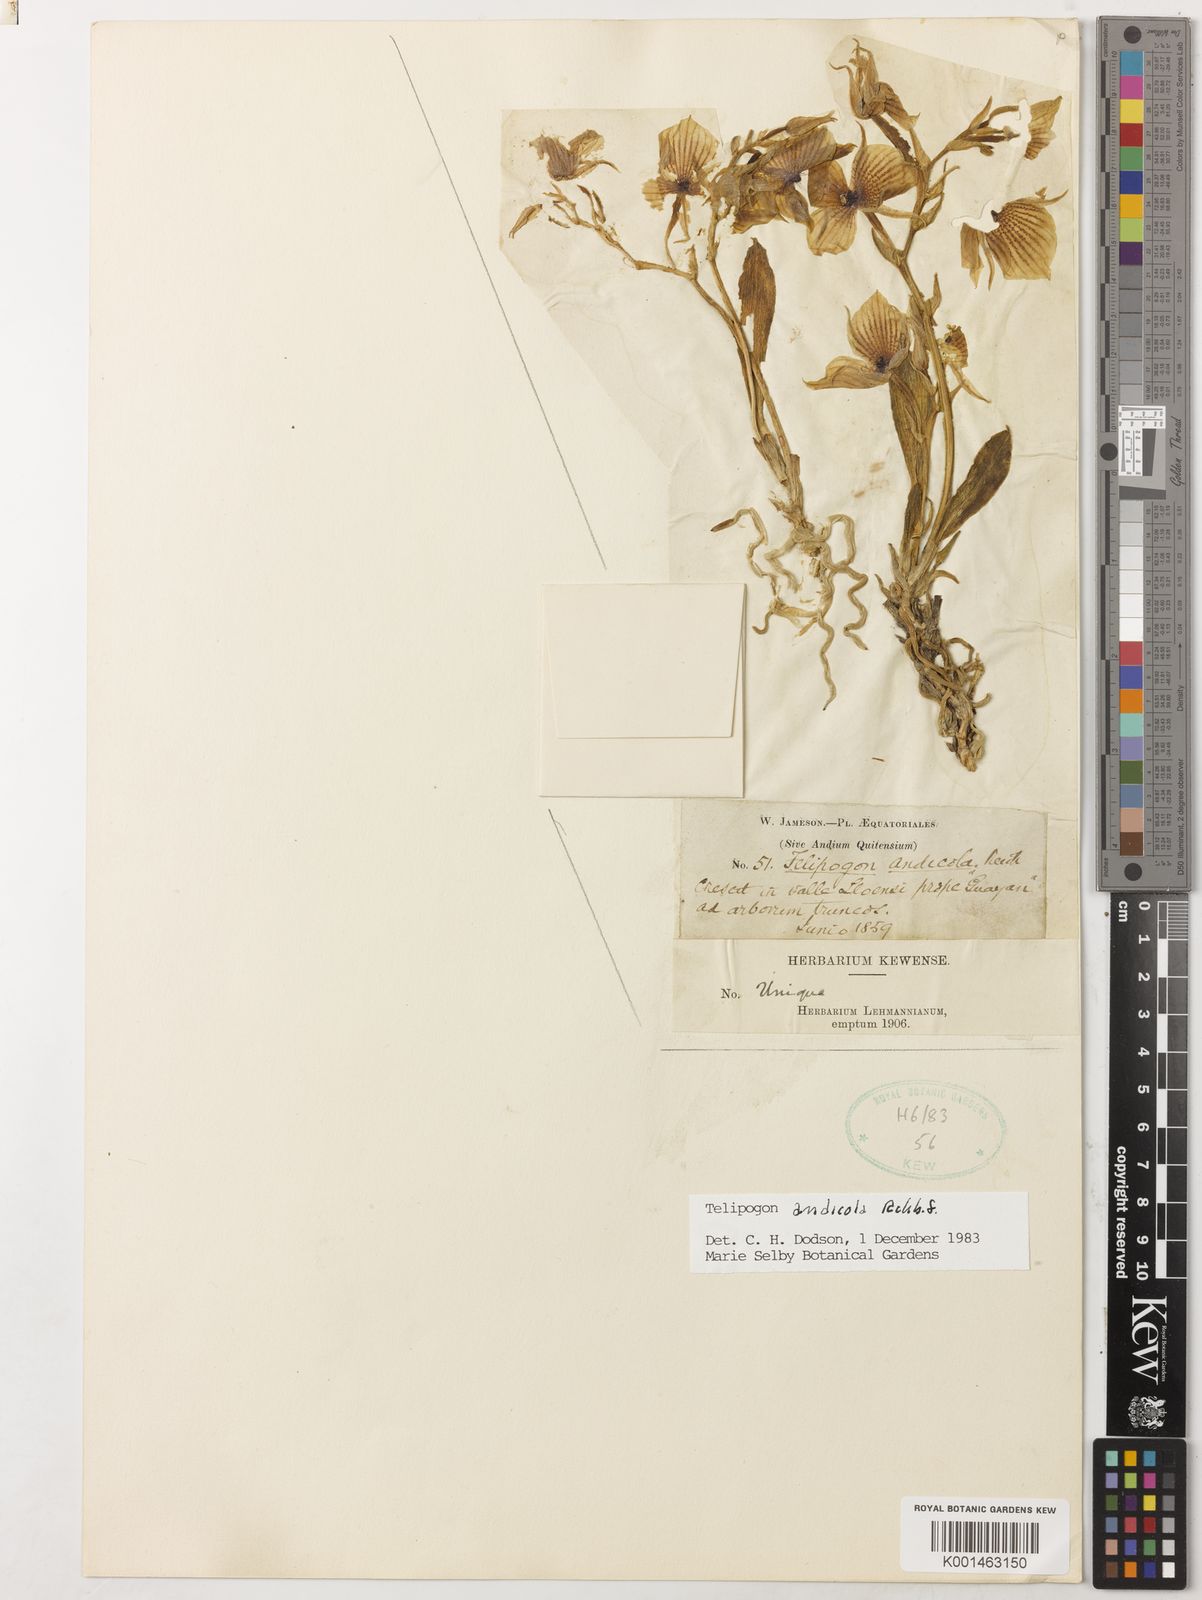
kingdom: Plantae
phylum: Tracheophyta
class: Liliopsida
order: Asparagales
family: Orchidaceae
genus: Telipogon
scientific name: Telipogon andicola
